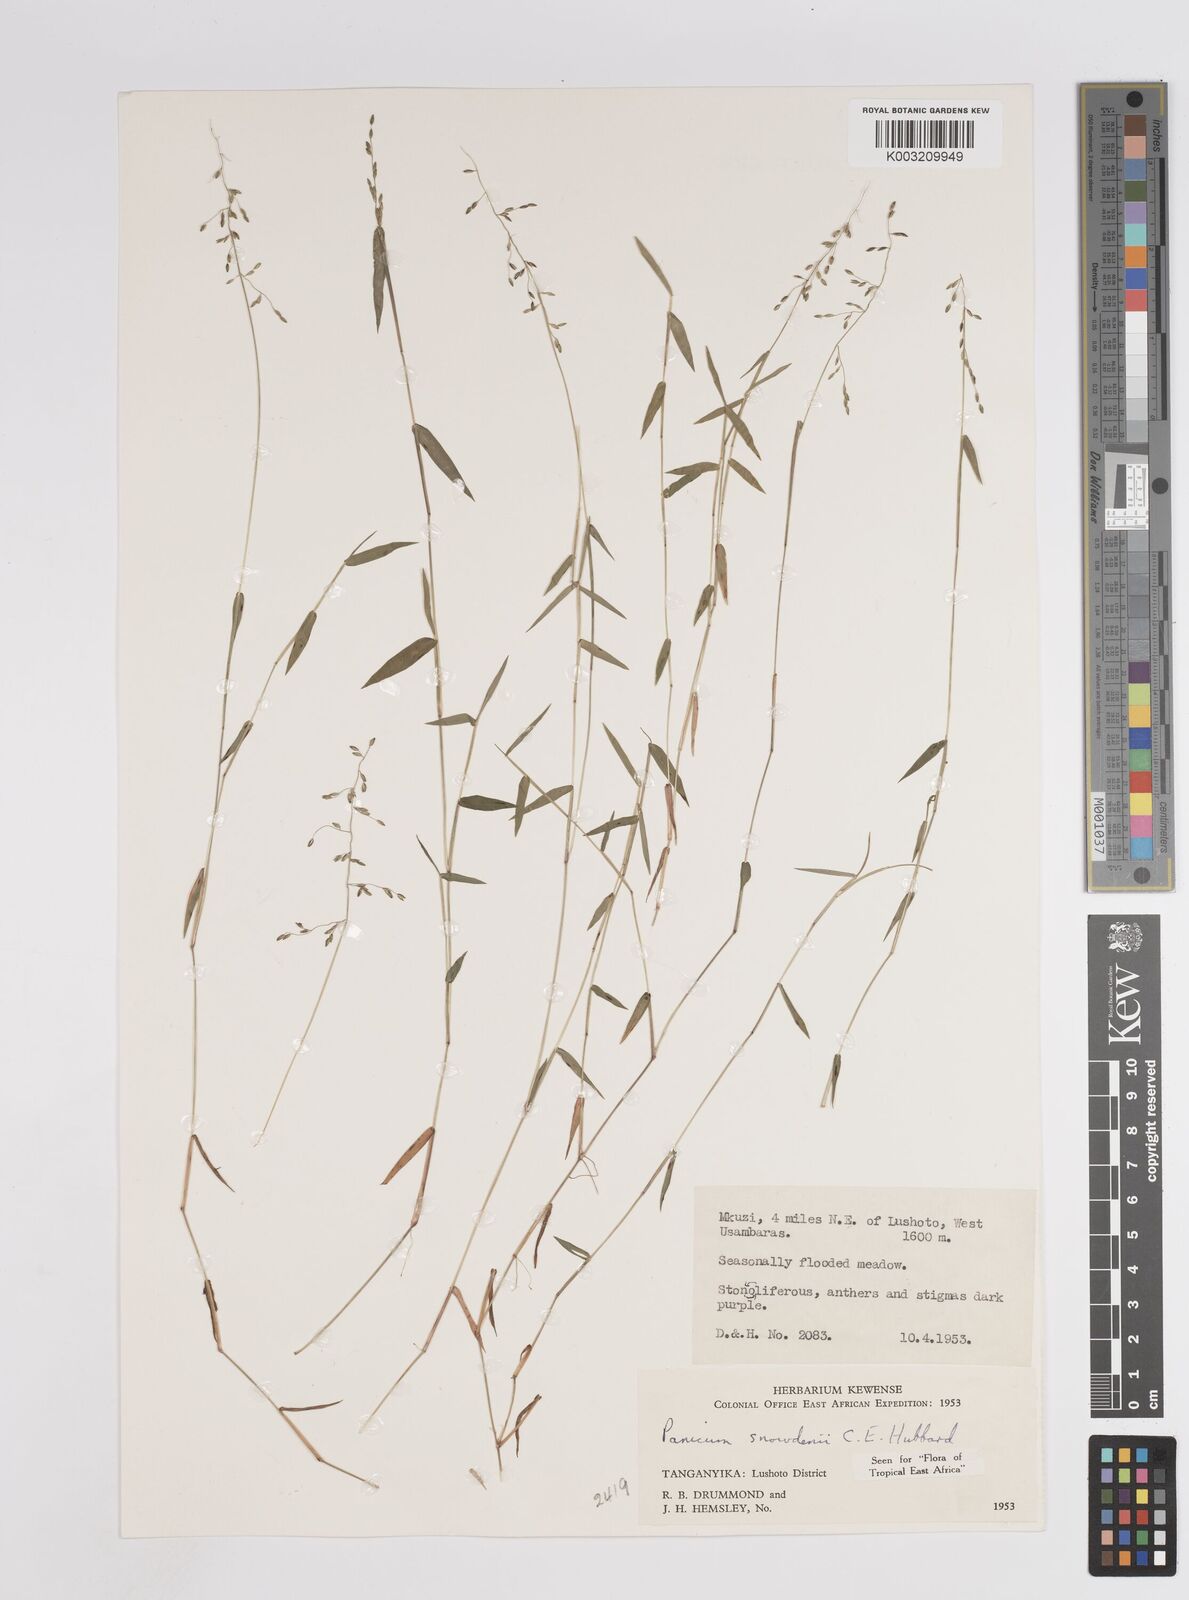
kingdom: Plantae
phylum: Tracheophyta
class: Liliopsida
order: Poales
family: Poaceae
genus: Adenochloa
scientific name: Adenochloa hymeniochila
